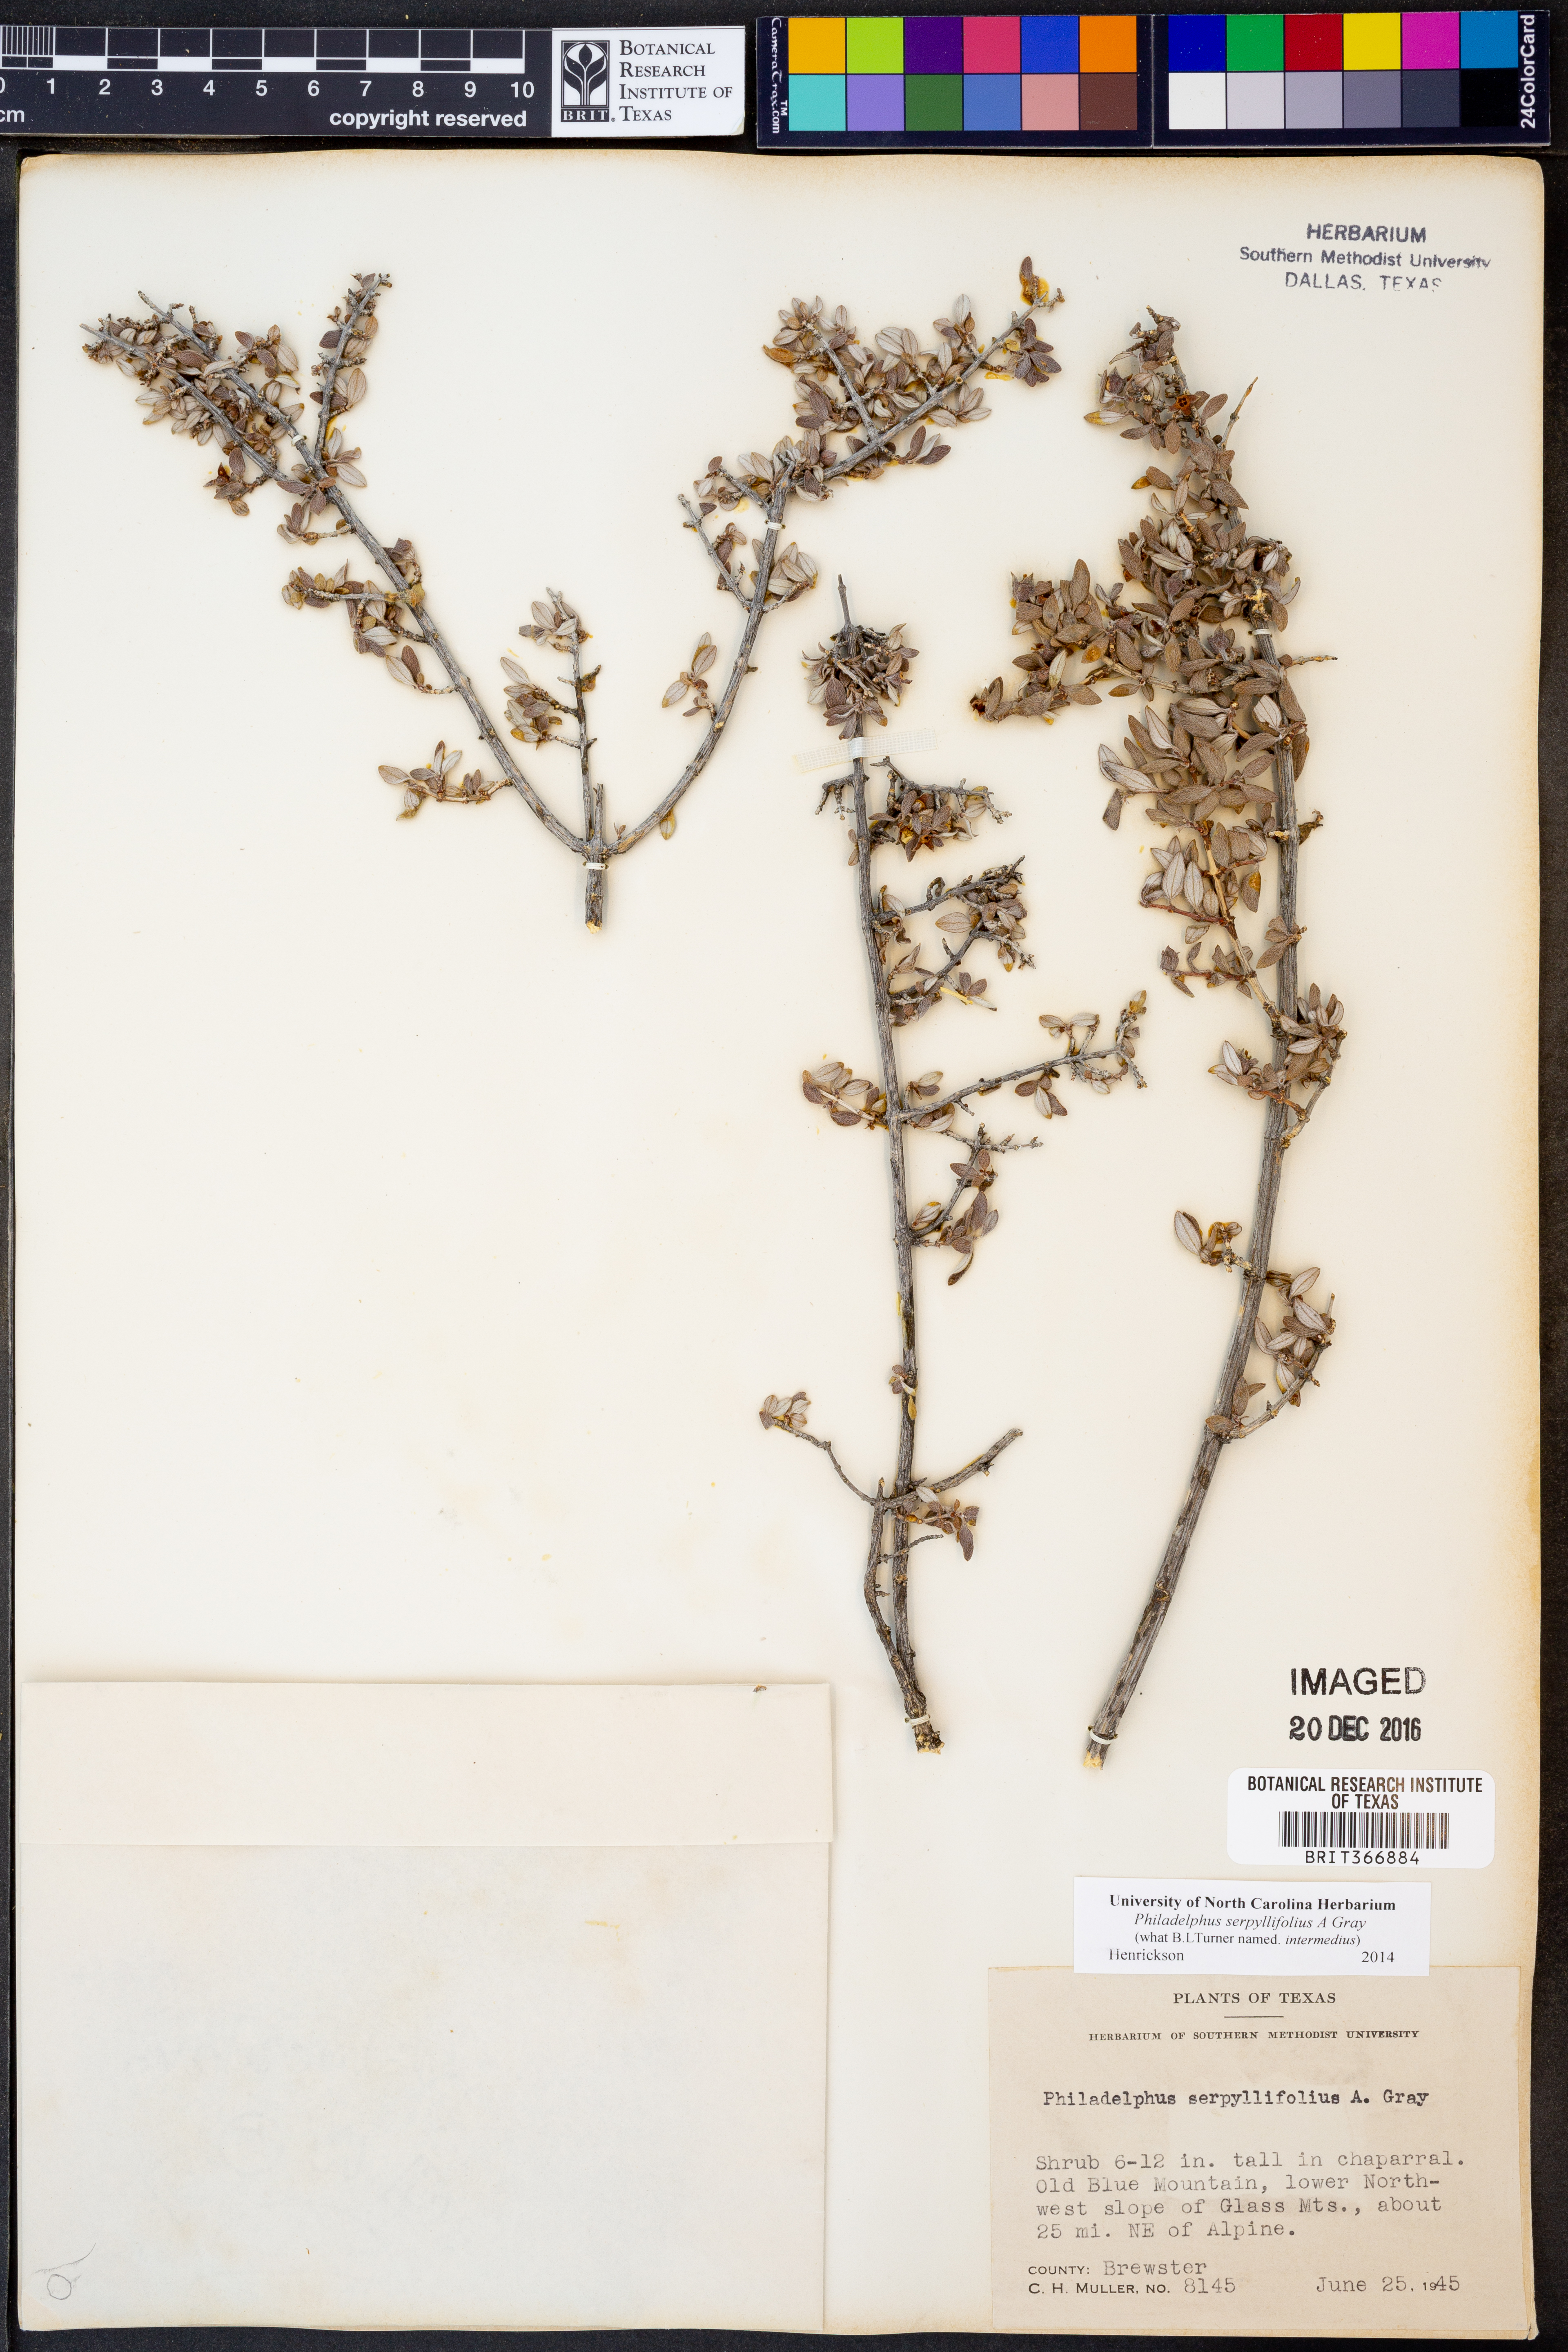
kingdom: Plantae
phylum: Tracheophyta
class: Magnoliopsida
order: Cornales
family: Hydrangeaceae
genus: Philadelphus
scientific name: Philadelphus serpyllifolius
